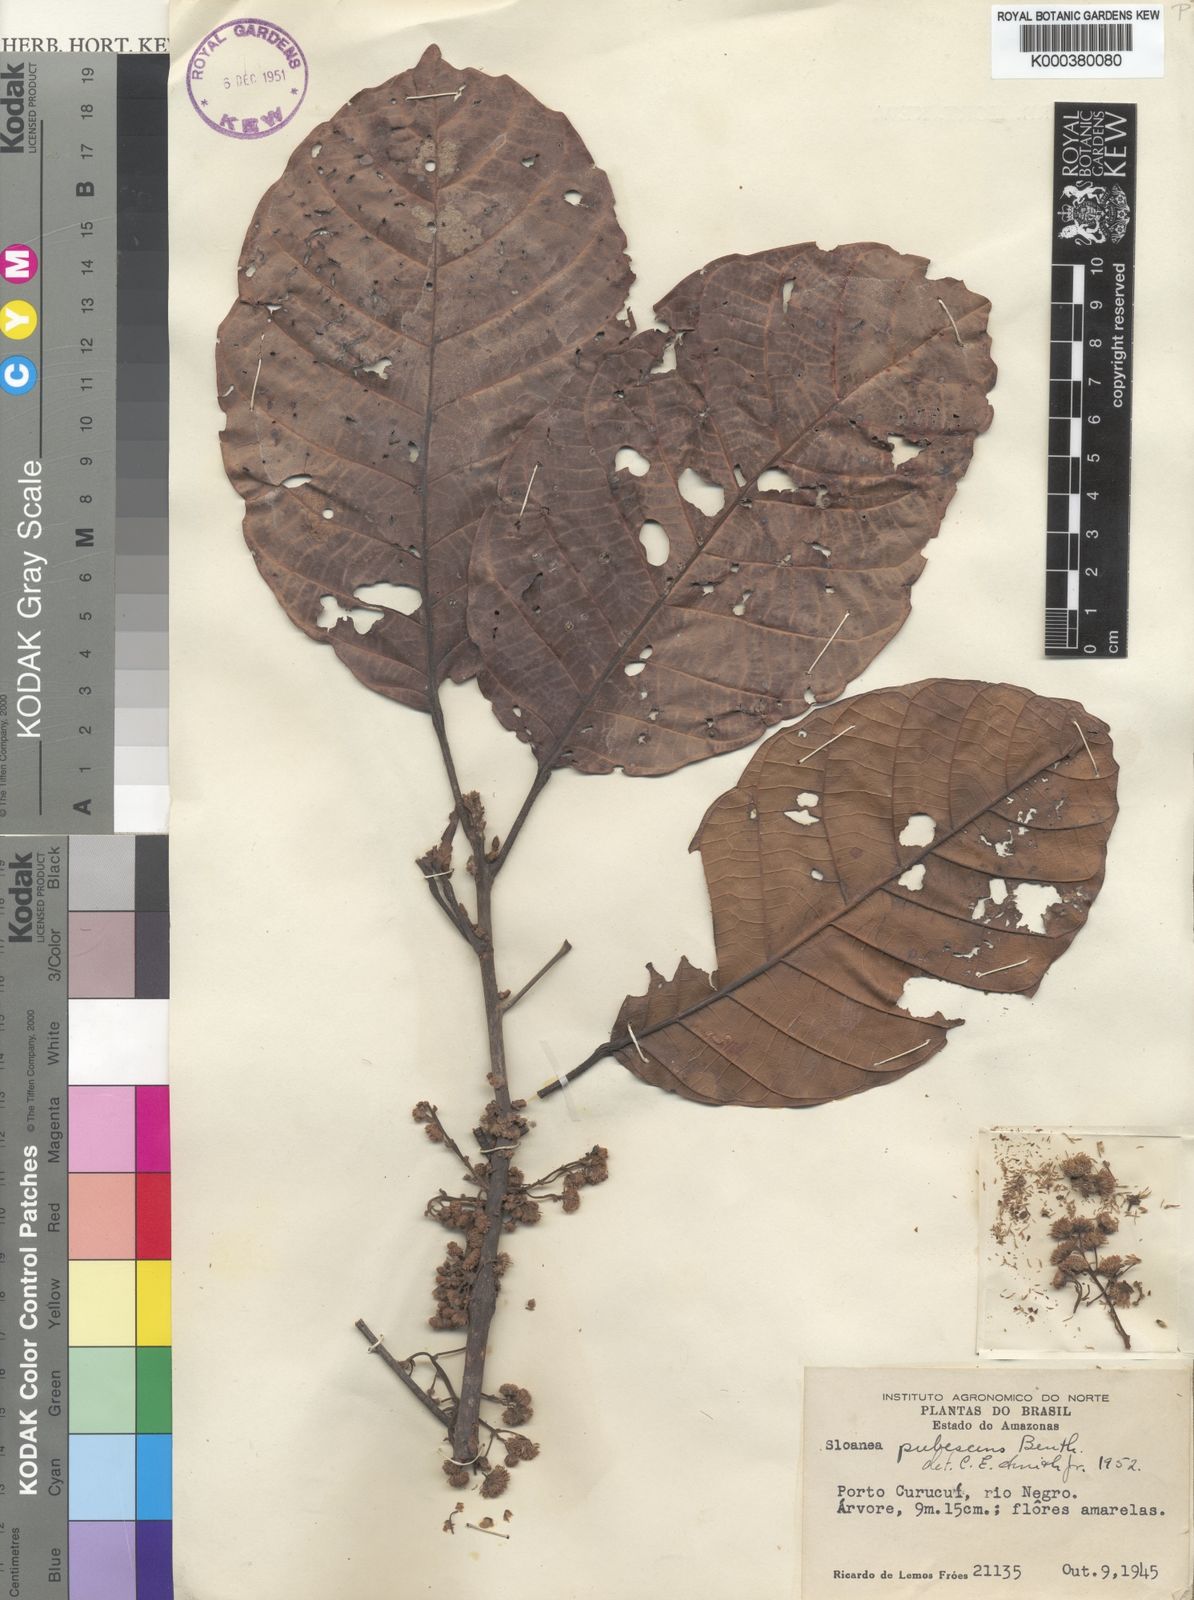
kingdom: Plantae
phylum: Tracheophyta
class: Magnoliopsida
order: Oxalidales
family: Elaeocarpaceae
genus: Sloanea
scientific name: Sloanea pubescens
